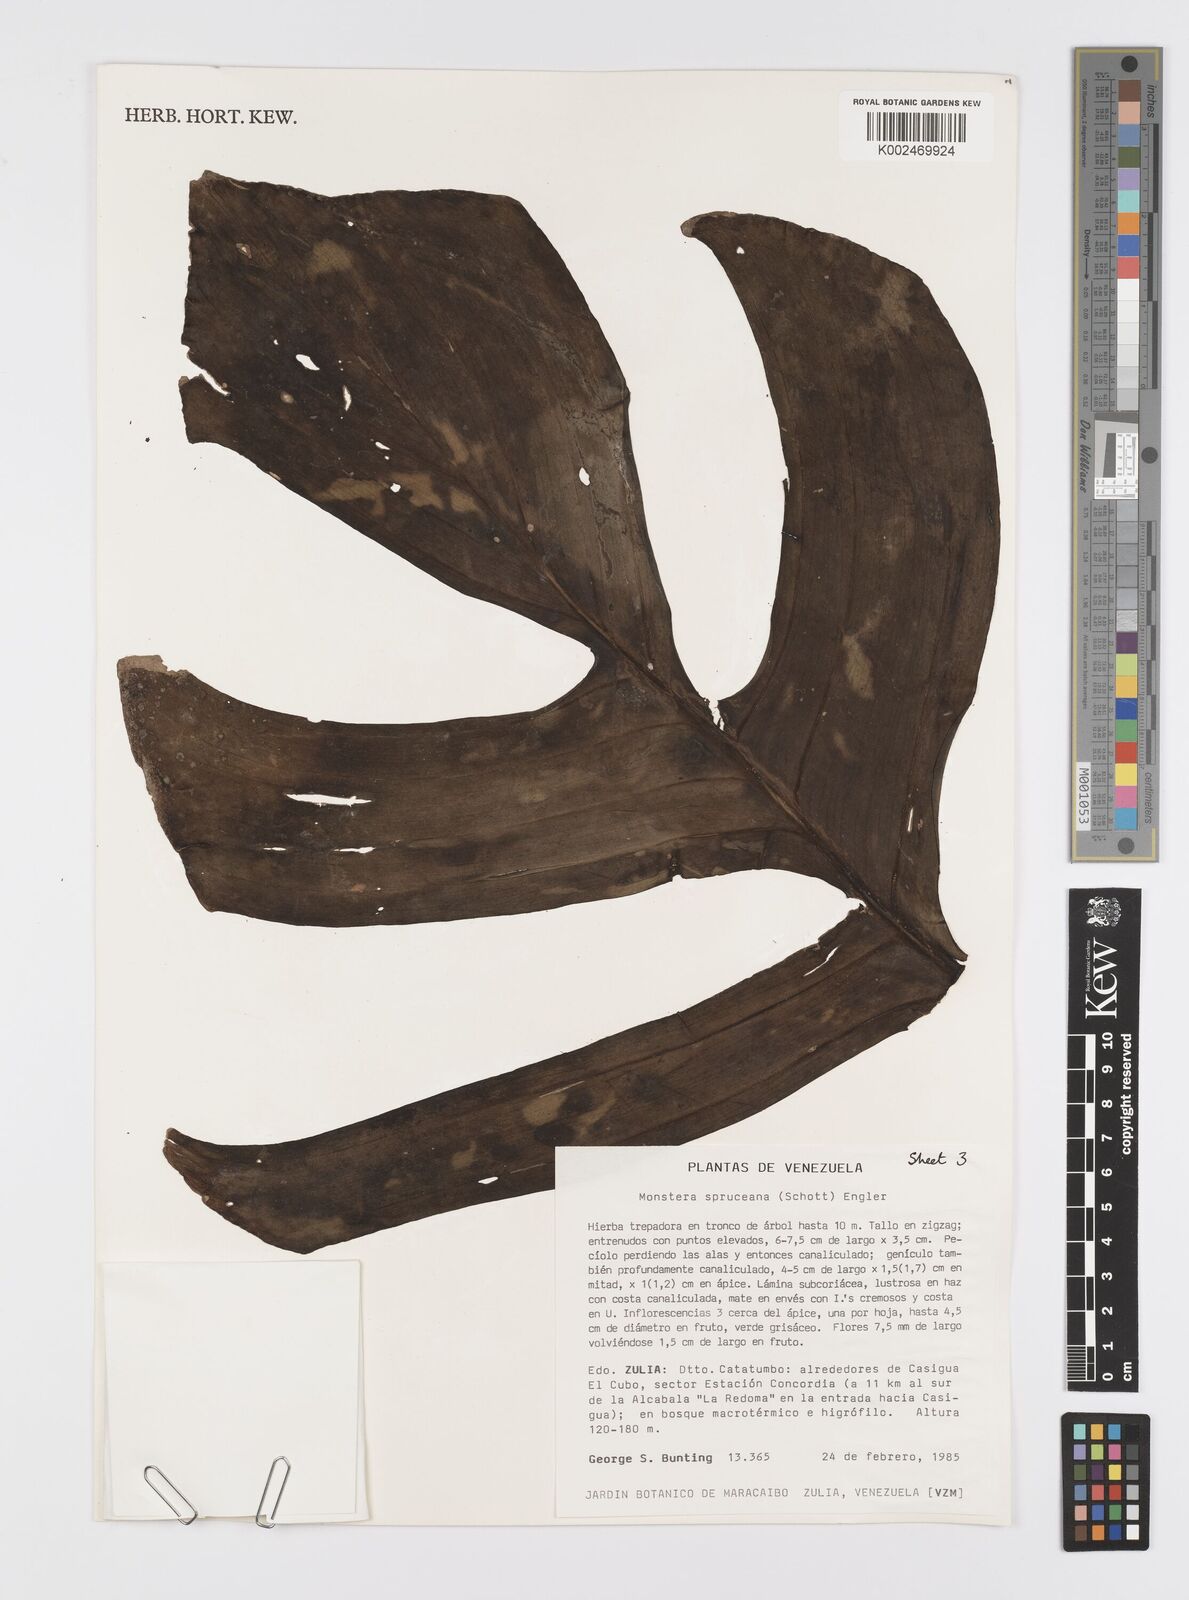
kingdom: Plantae
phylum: Tracheophyta
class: Liliopsida
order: Alismatales
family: Araceae
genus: Monstera
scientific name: Monstera spruceana
